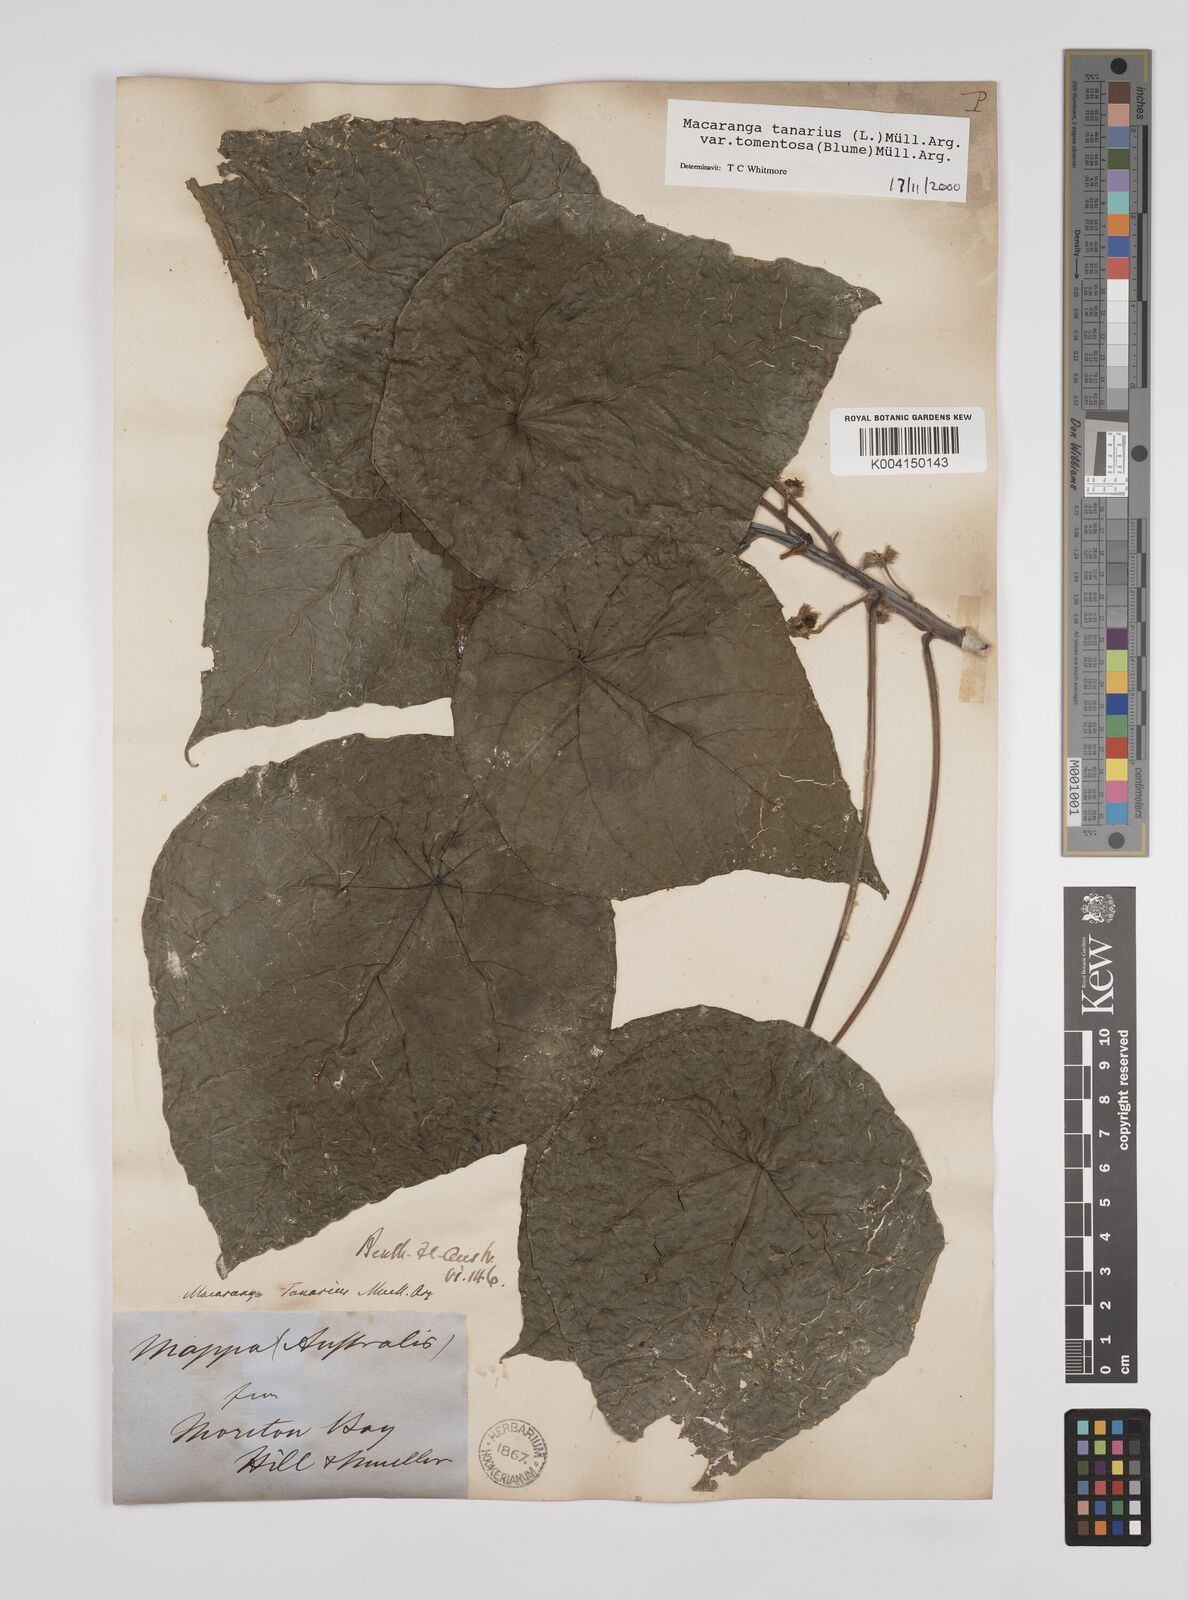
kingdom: Plantae
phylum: Tracheophyta
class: Magnoliopsida
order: Malpighiales
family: Euphorbiaceae
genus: Macaranga
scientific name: Macaranga tanarius
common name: Parasol leaf tree
